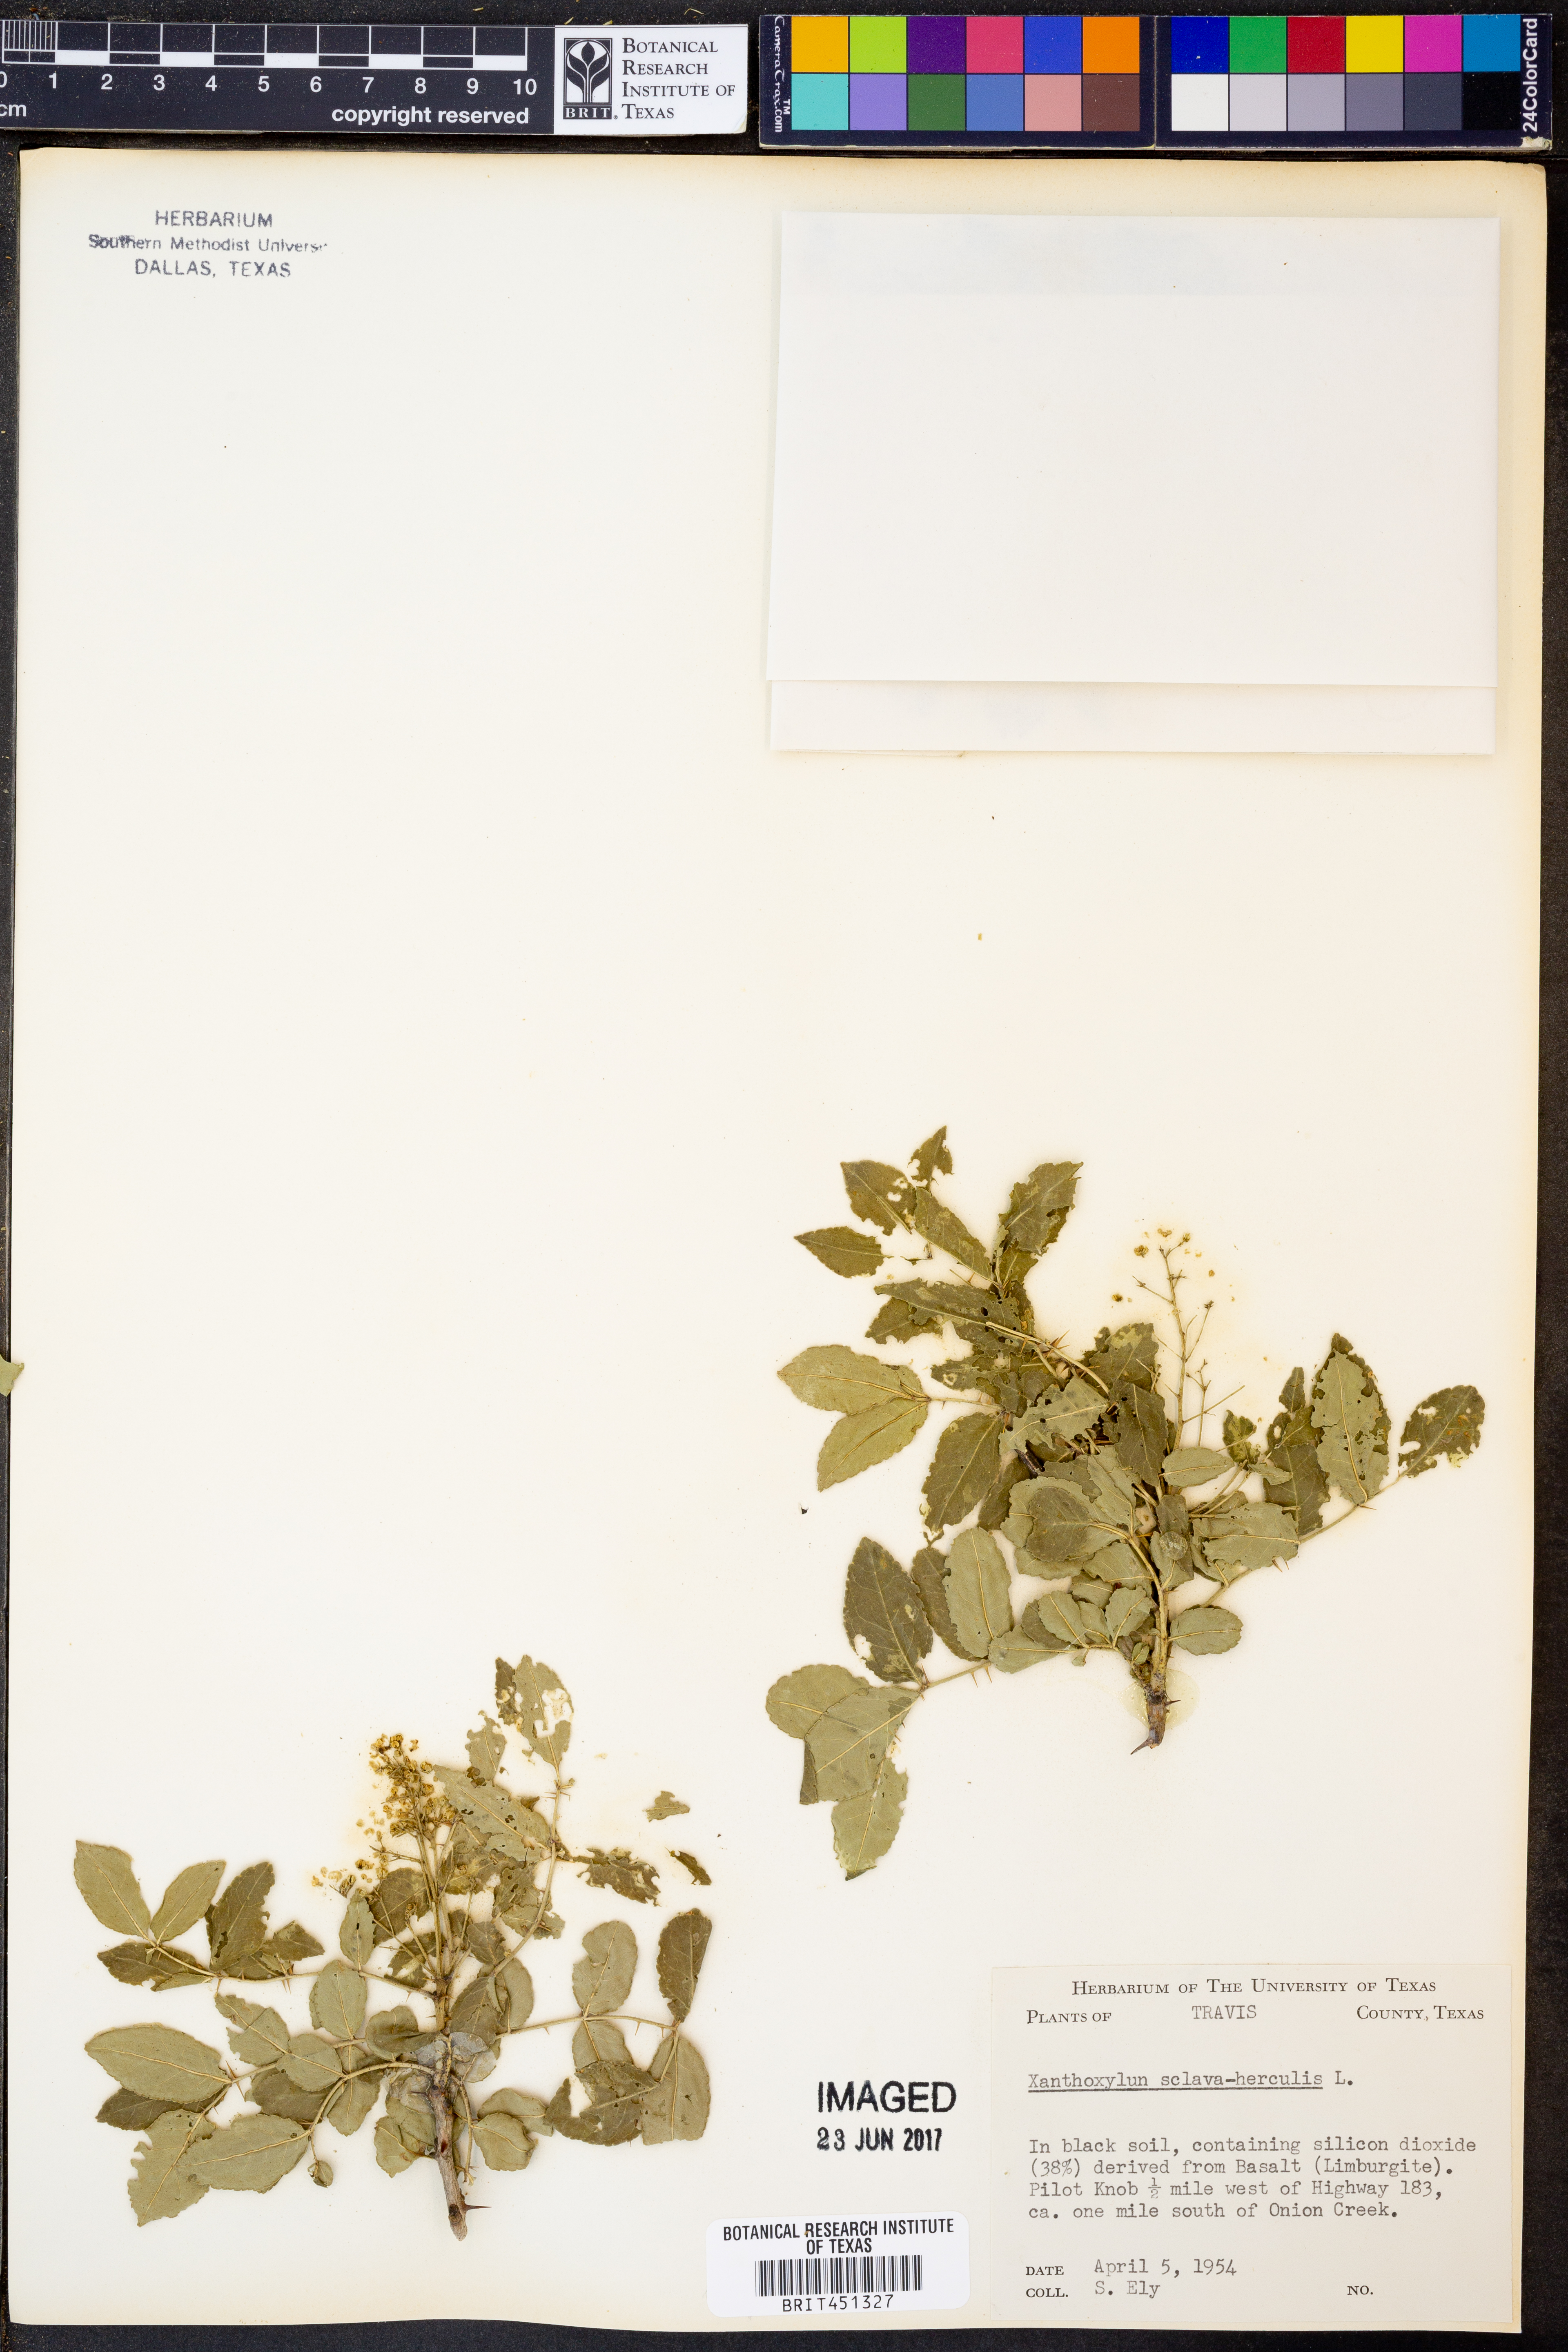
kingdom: Plantae
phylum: Tracheophyta
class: Magnoliopsida
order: Sapindales
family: Rutaceae
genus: Zanthoxylum
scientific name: Zanthoxylum avicennae
